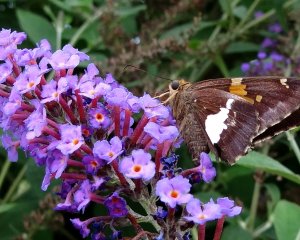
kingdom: Animalia
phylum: Arthropoda
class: Insecta
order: Lepidoptera
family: Hesperiidae
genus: Epargyreus
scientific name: Epargyreus clarus
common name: Silver-spotted Skipper
